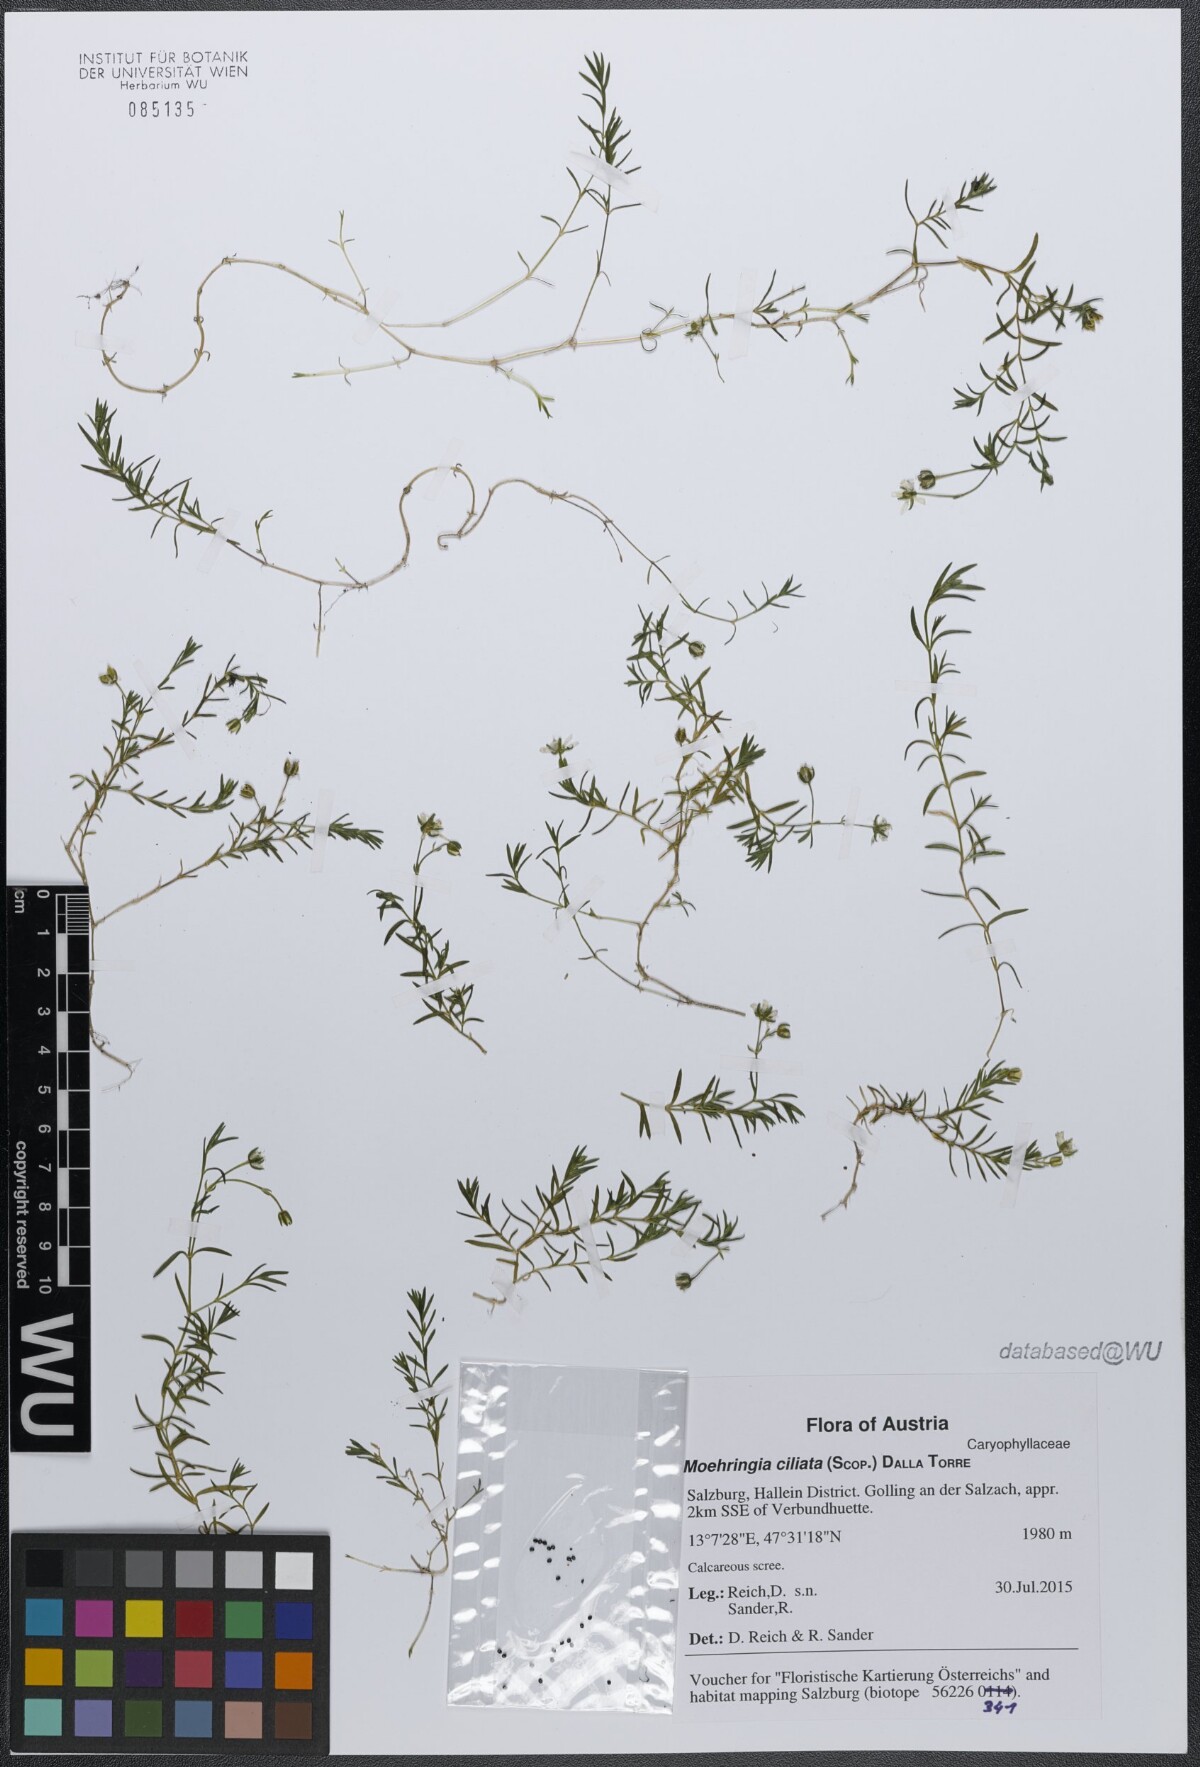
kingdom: Plantae
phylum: Tracheophyta
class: Magnoliopsida
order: Caryophyllales
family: Caryophyllaceae
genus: Moehringia
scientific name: Moehringia ciliata
